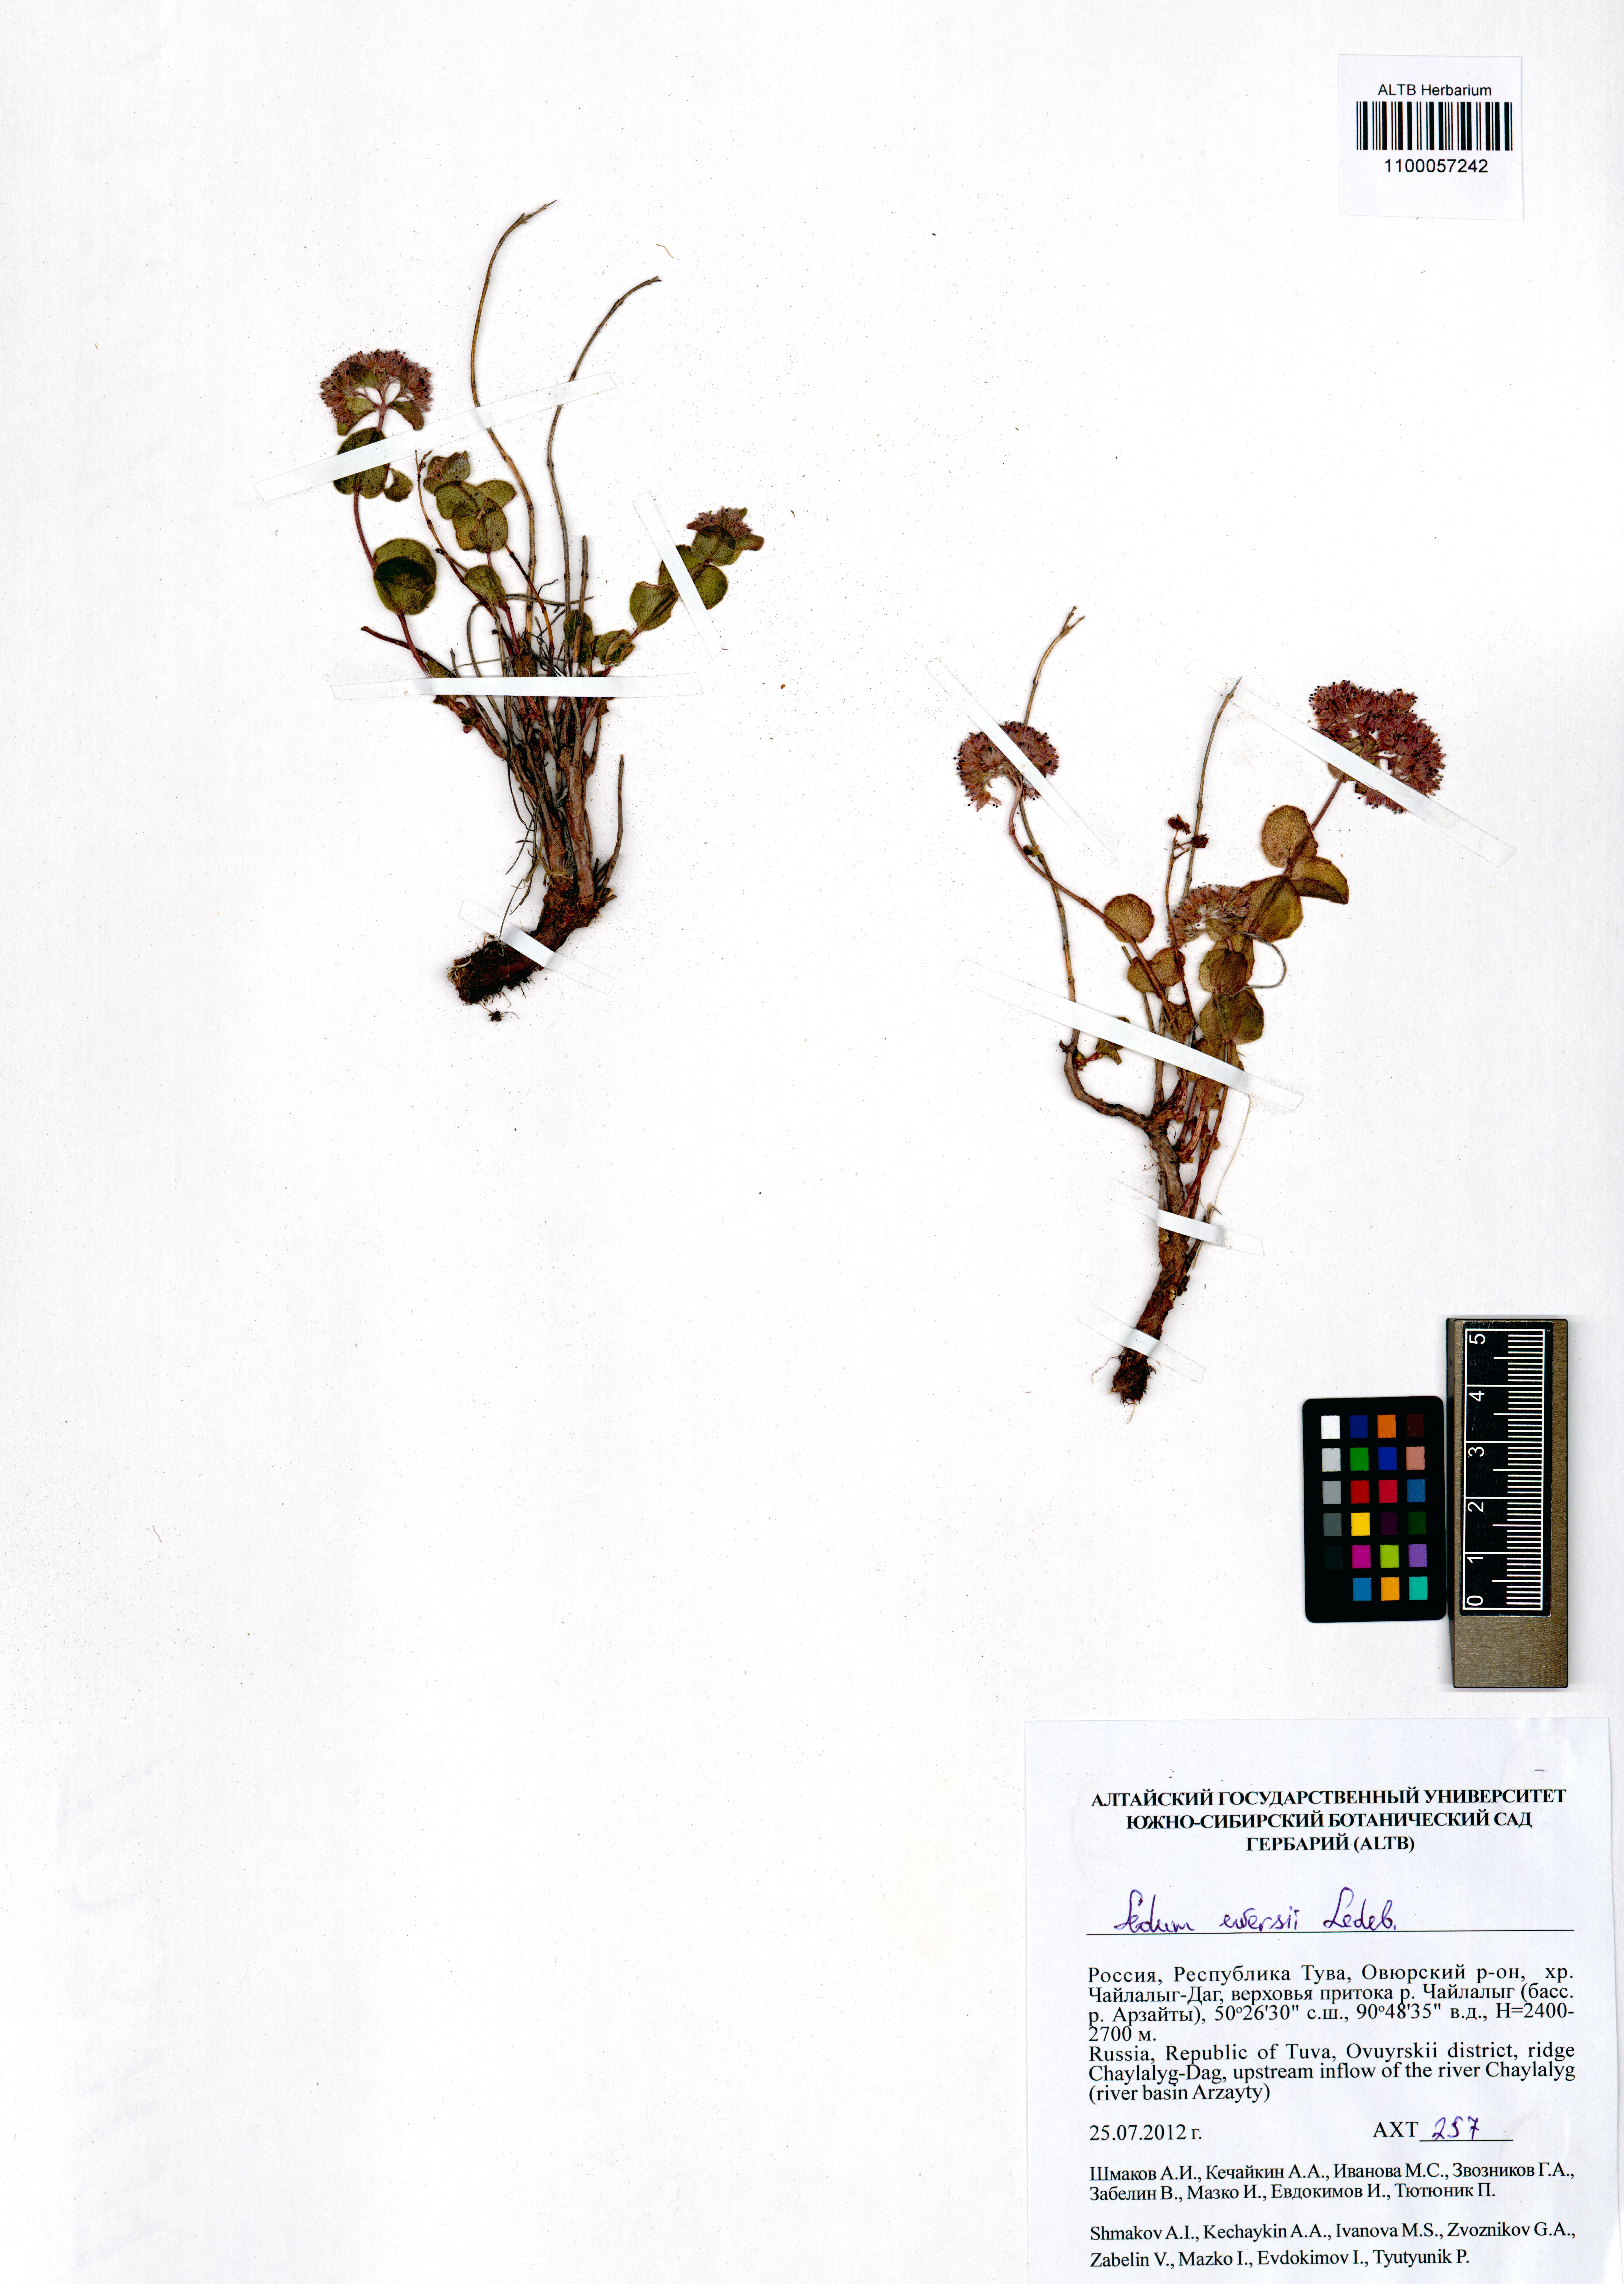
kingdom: Plantae
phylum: Tracheophyta
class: Magnoliopsida
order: Saxifragales
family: Crassulaceae
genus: Hylotelephium
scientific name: Hylotelephium ewersii
